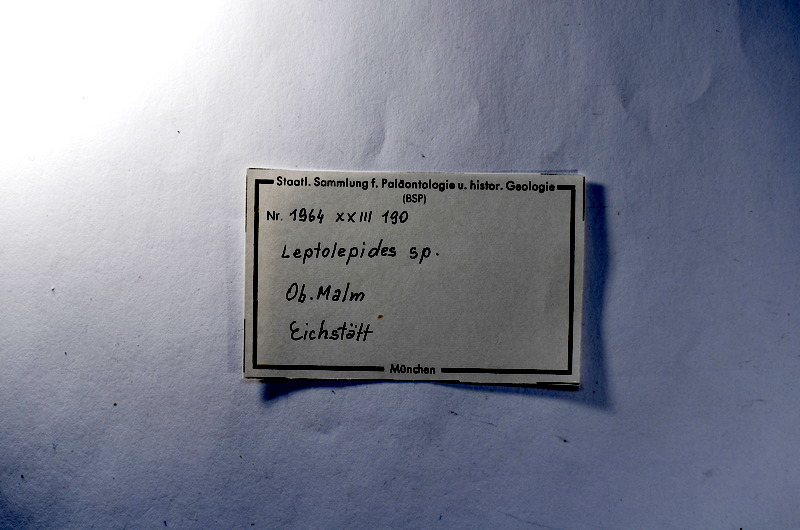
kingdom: Animalia
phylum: Chordata
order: Salmoniformes
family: Orthogonikleithridae
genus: Leptolepides
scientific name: Leptolepides
